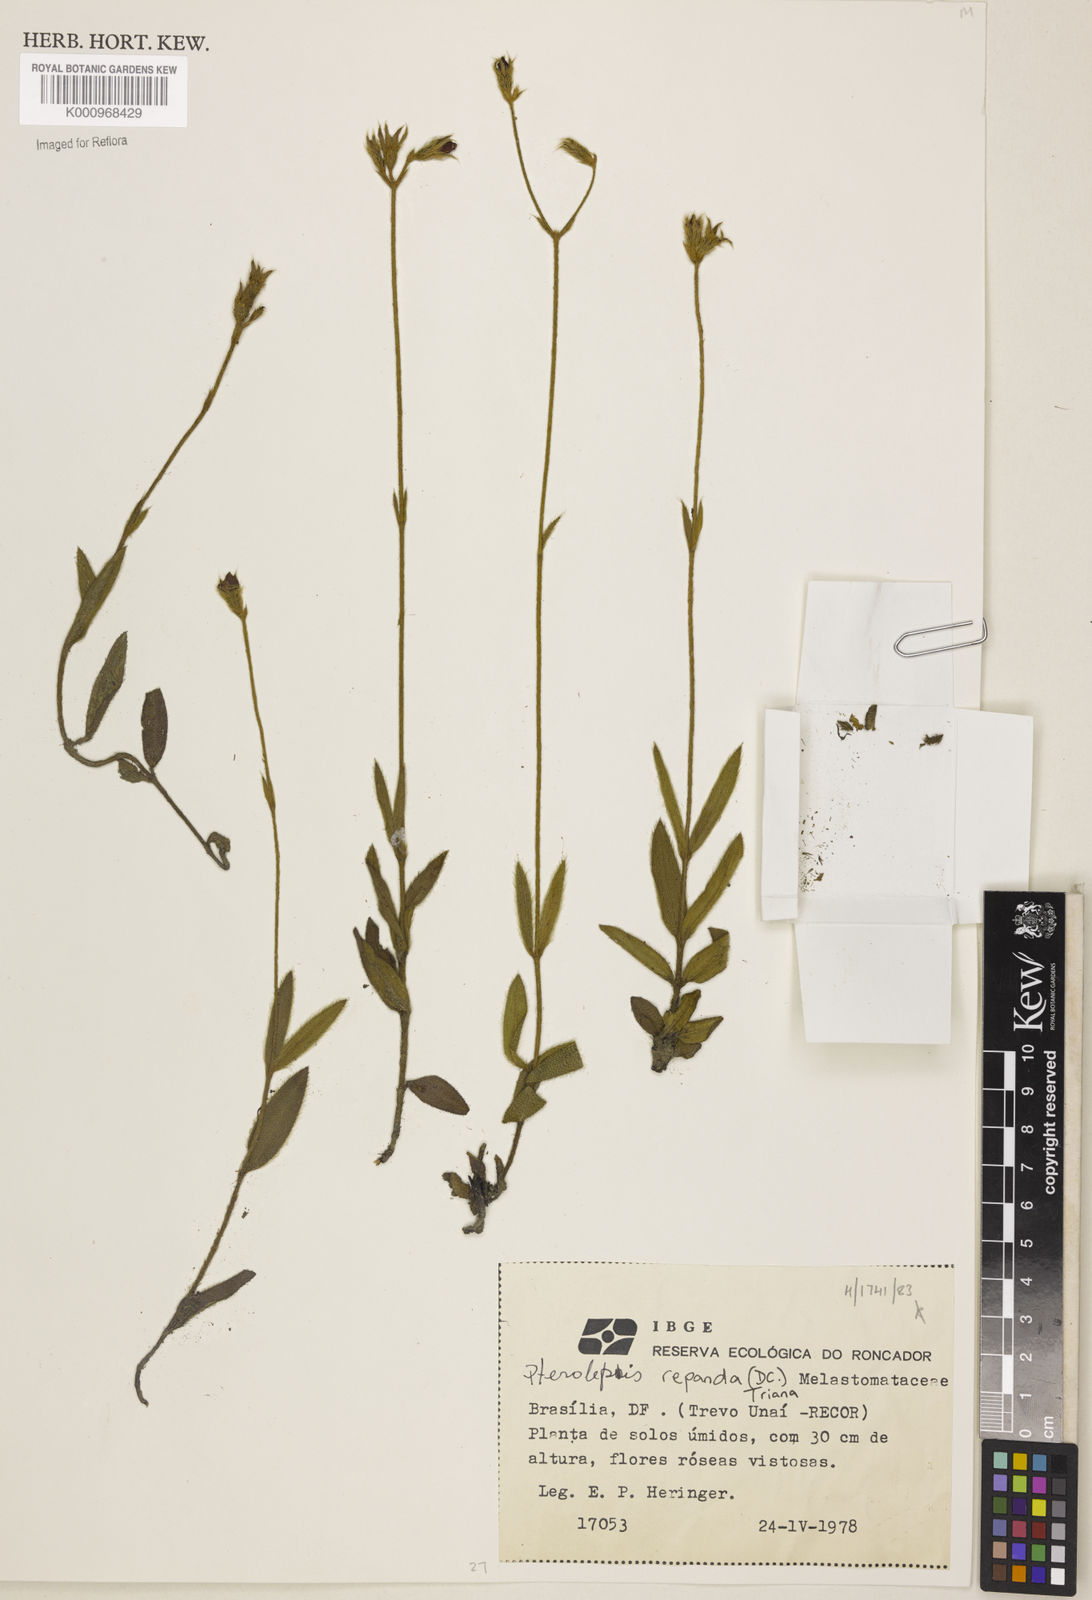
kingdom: Plantae
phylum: Tracheophyta
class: Magnoliopsida
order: Myrtales
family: Melastomataceae
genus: Pterolepis
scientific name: Pterolepis repanda
